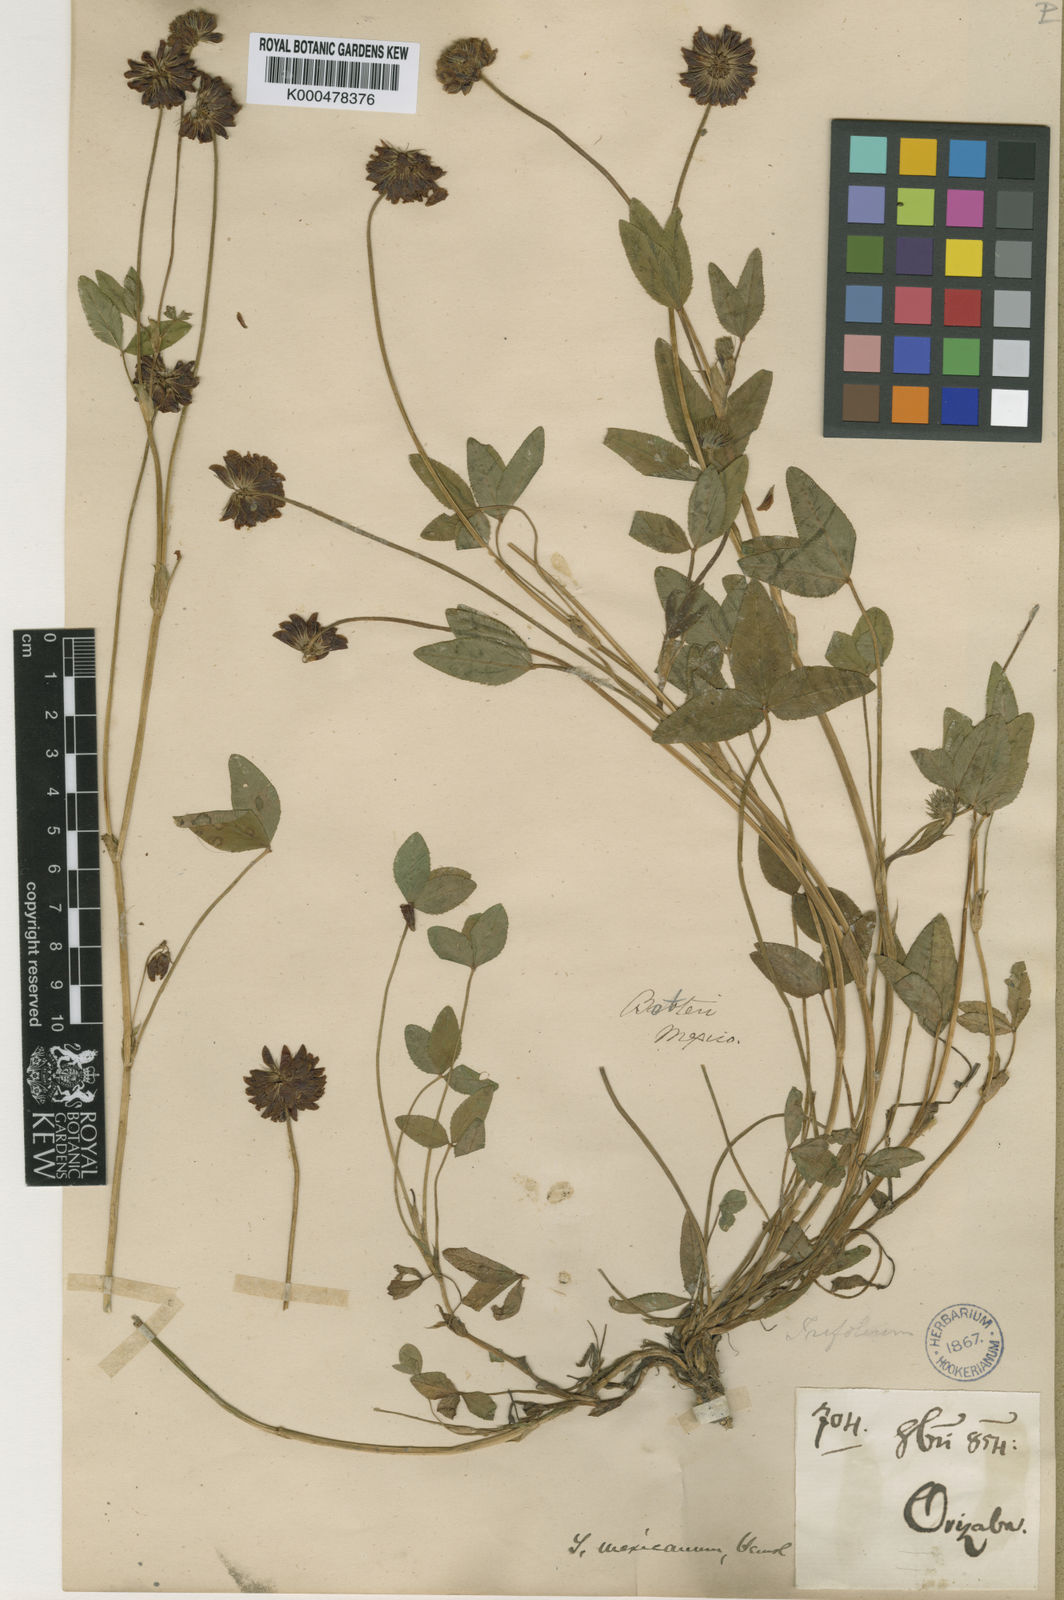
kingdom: Plantae
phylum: Tracheophyta
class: Magnoliopsida
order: Fabales
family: Fabaceae
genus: Trifolium
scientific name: Trifolium amabile
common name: Aztec clover
